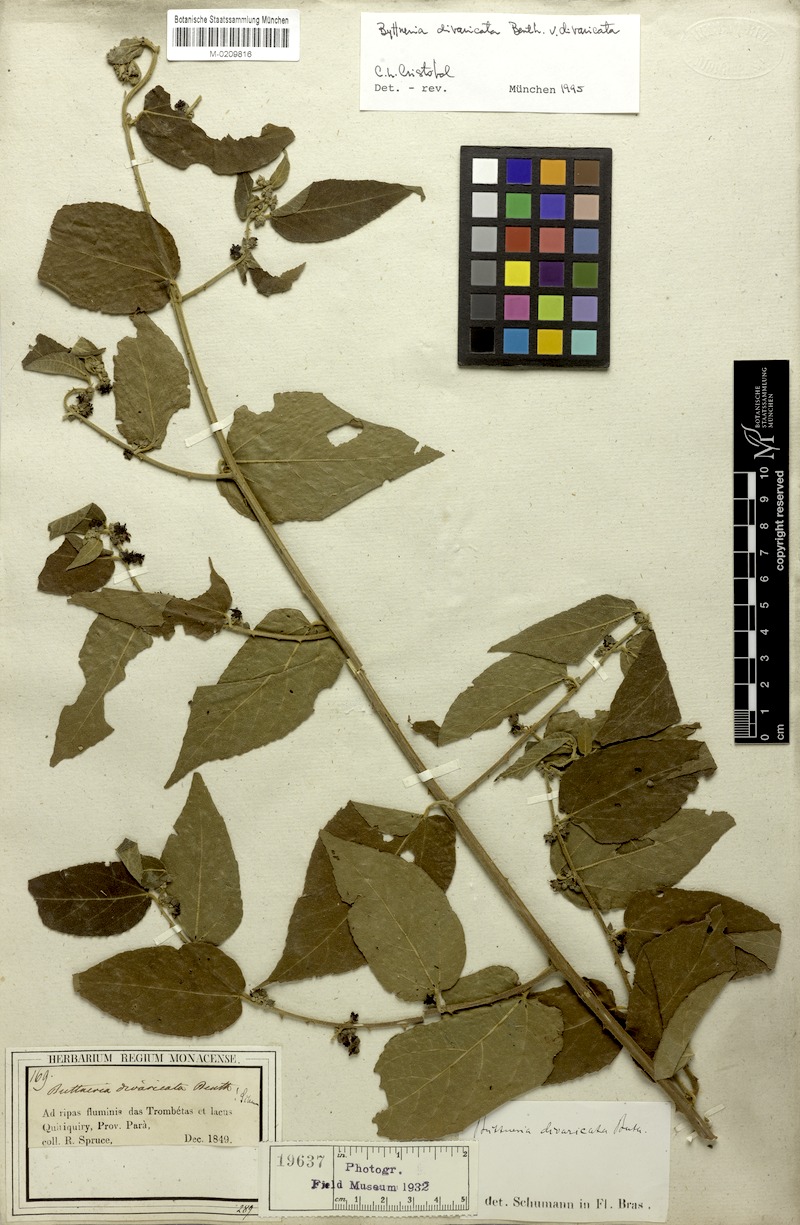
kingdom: Plantae
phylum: Tracheophyta
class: Magnoliopsida
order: Malvales
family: Malvaceae
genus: Byttneria
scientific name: Byttneria divaricata
